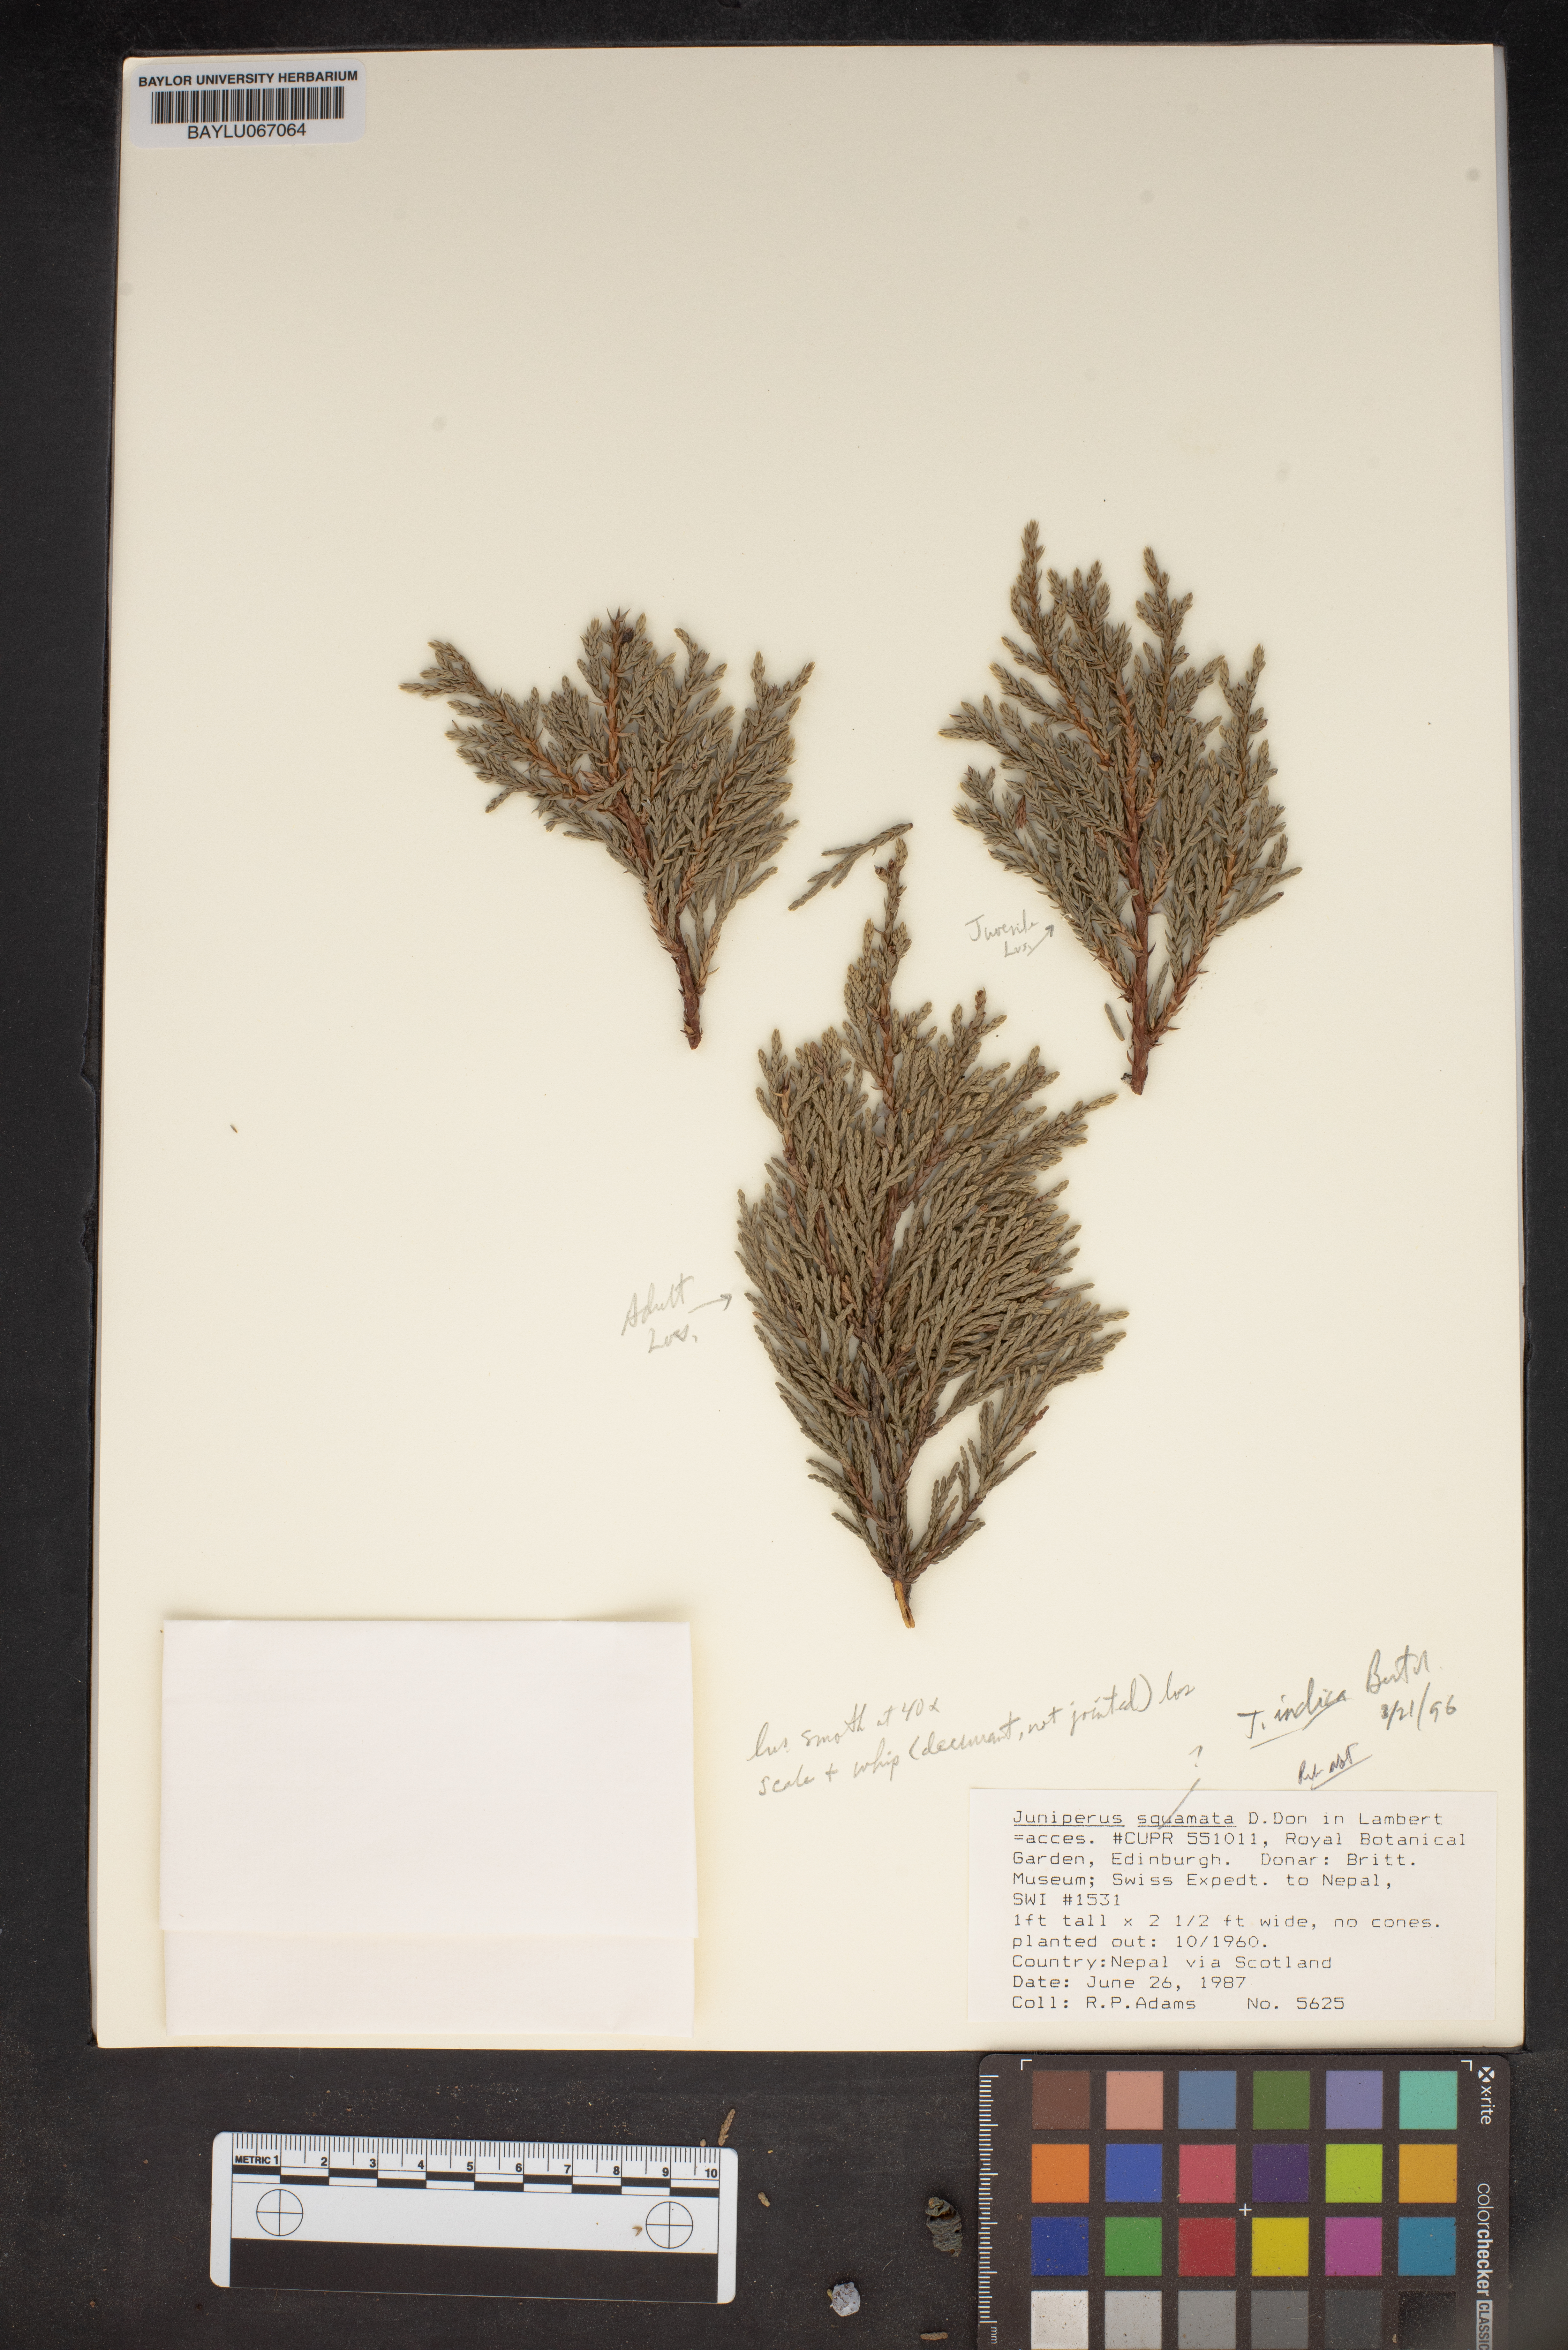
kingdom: Plantae
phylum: Tracheophyta
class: Pinopsida
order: Pinales
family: Cupressaceae
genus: Juniperus
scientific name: Juniperus squamata
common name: Flaky juniper
